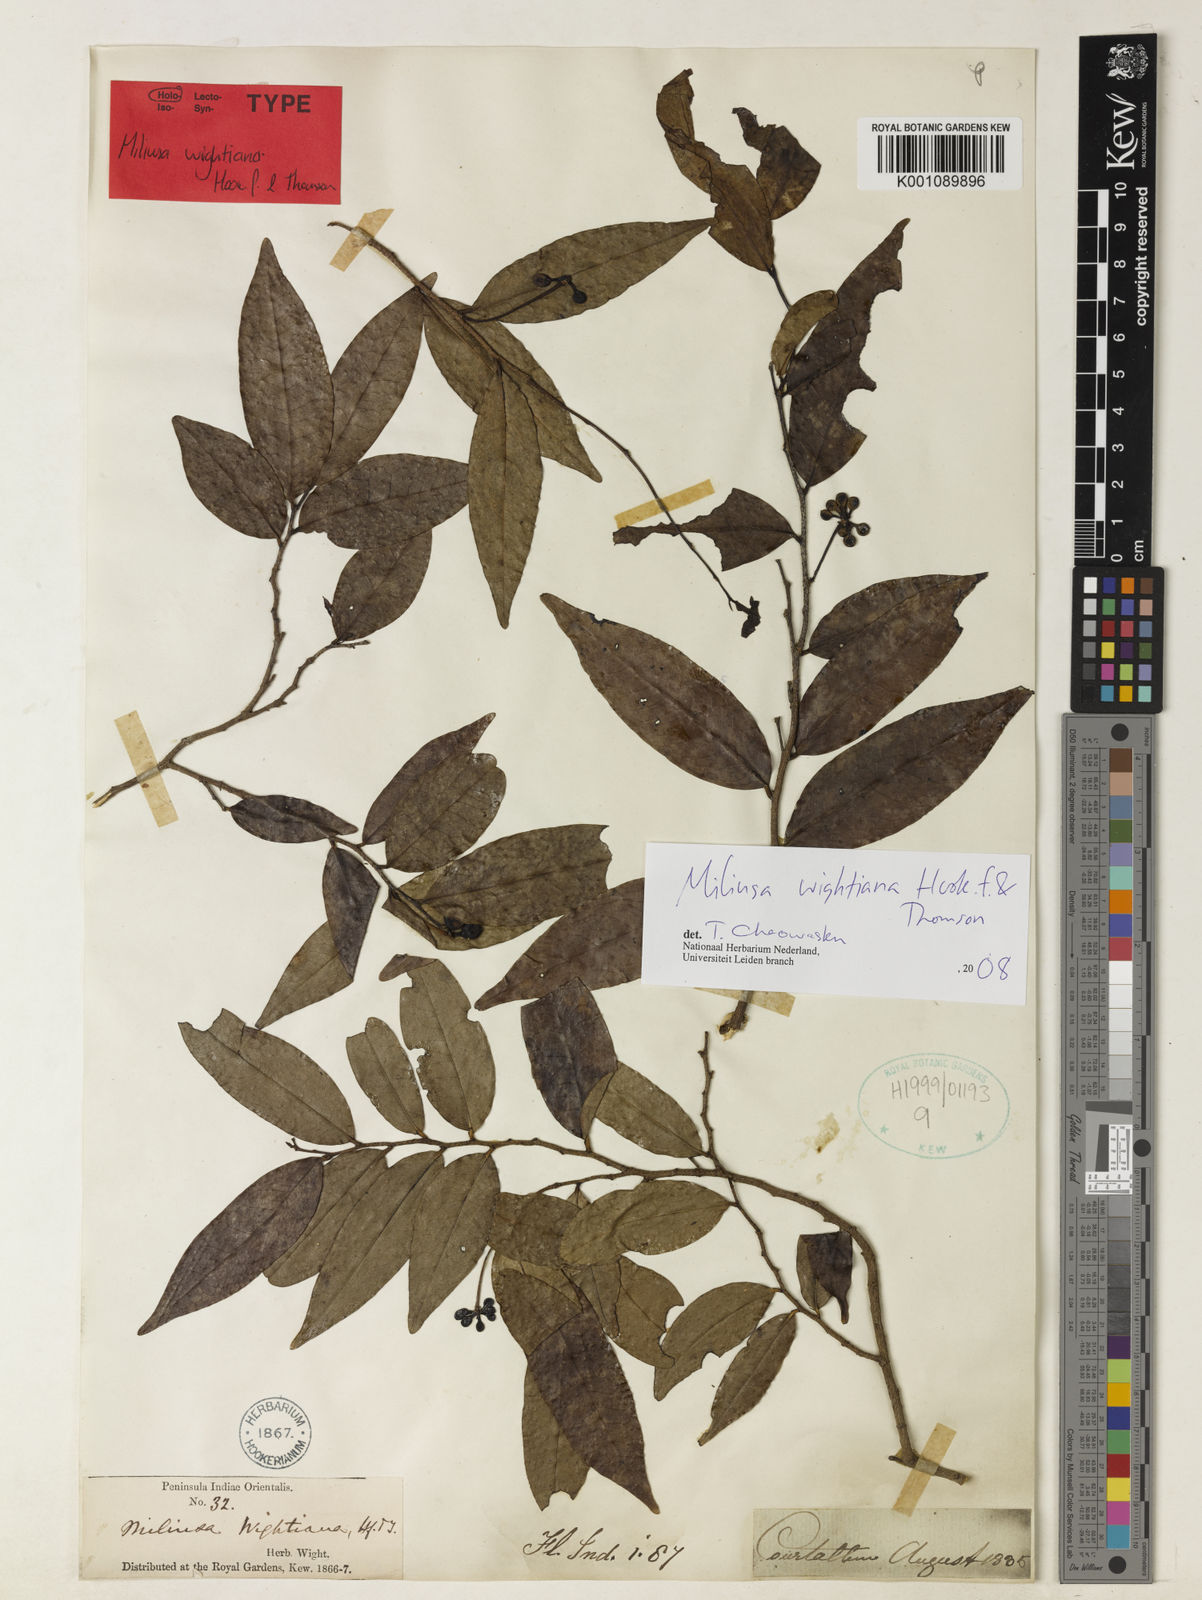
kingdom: Plantae
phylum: Tracheophyta
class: Magnoliopsida
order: Magnoliales
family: Annonaceae
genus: Miliusa
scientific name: Miliusa wightiana
